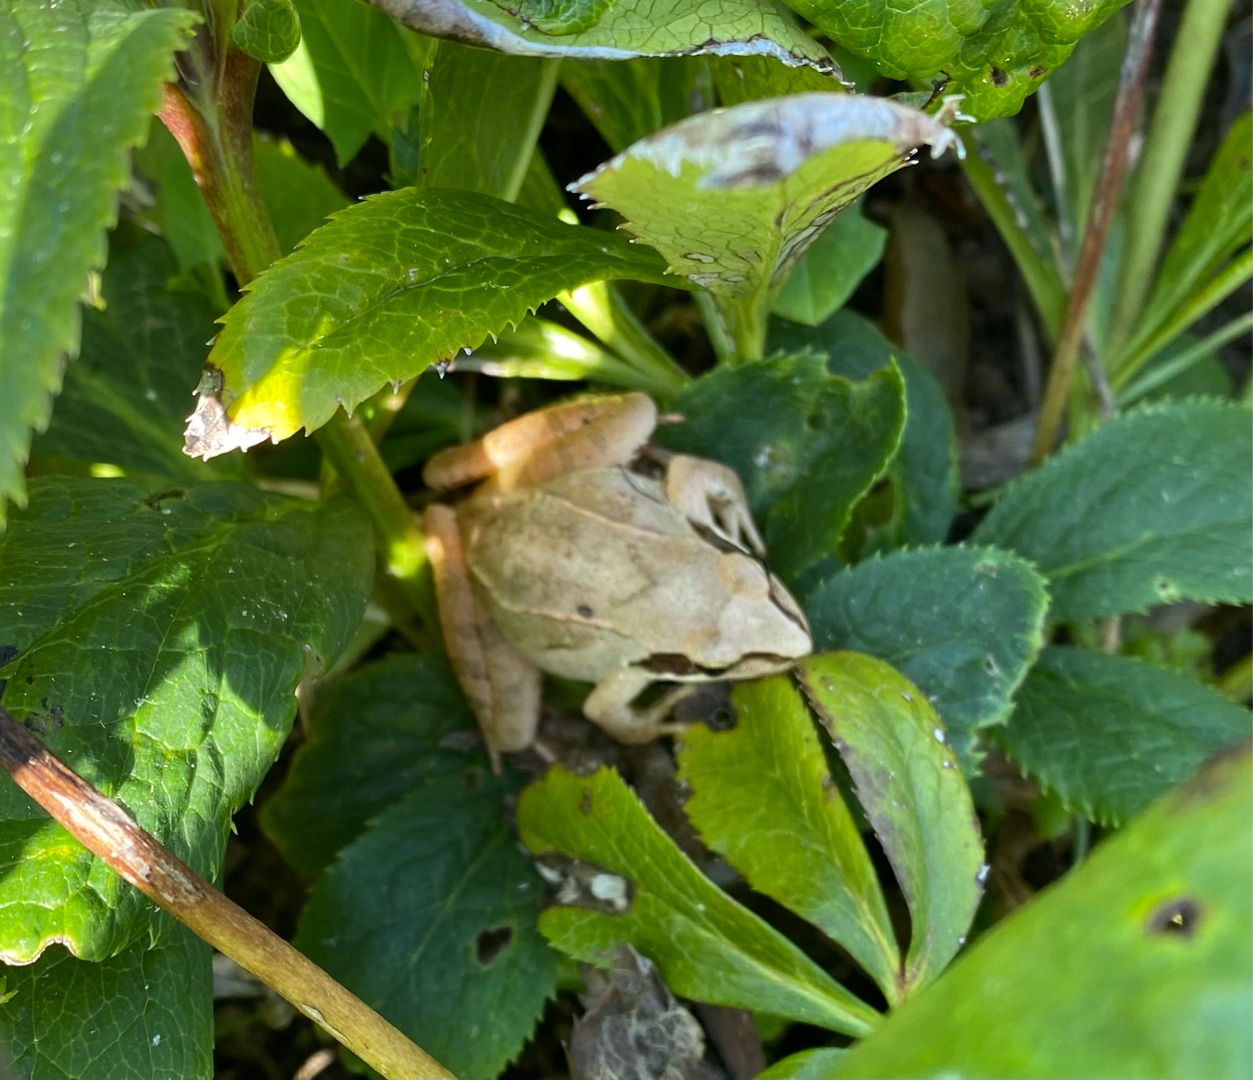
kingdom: Animalia
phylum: Chordata
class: Amphibia
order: Anura
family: Ranidae
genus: Rana
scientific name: Rana dalmatina
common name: Springfrø
